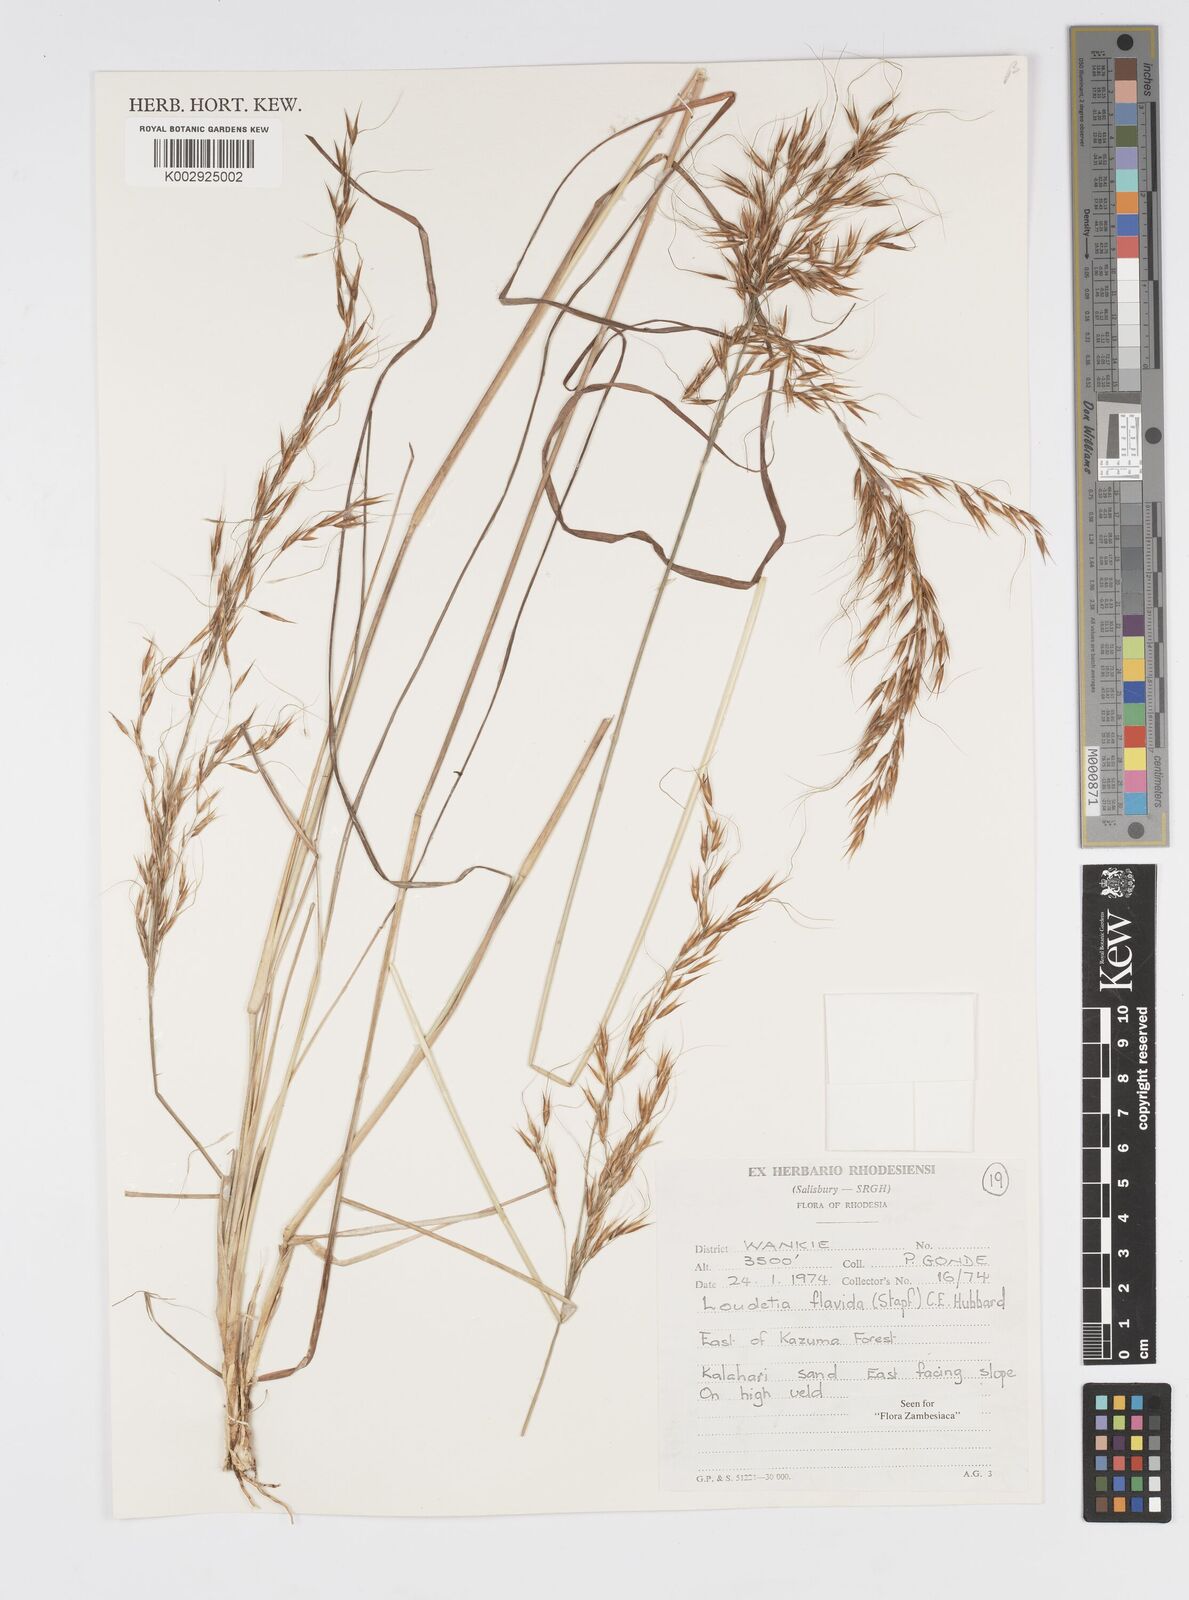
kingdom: Plantae
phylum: Tracheophyta
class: Liliopsida
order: Poales
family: Poaceae
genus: Loudetia
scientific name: Loudetia flavida
